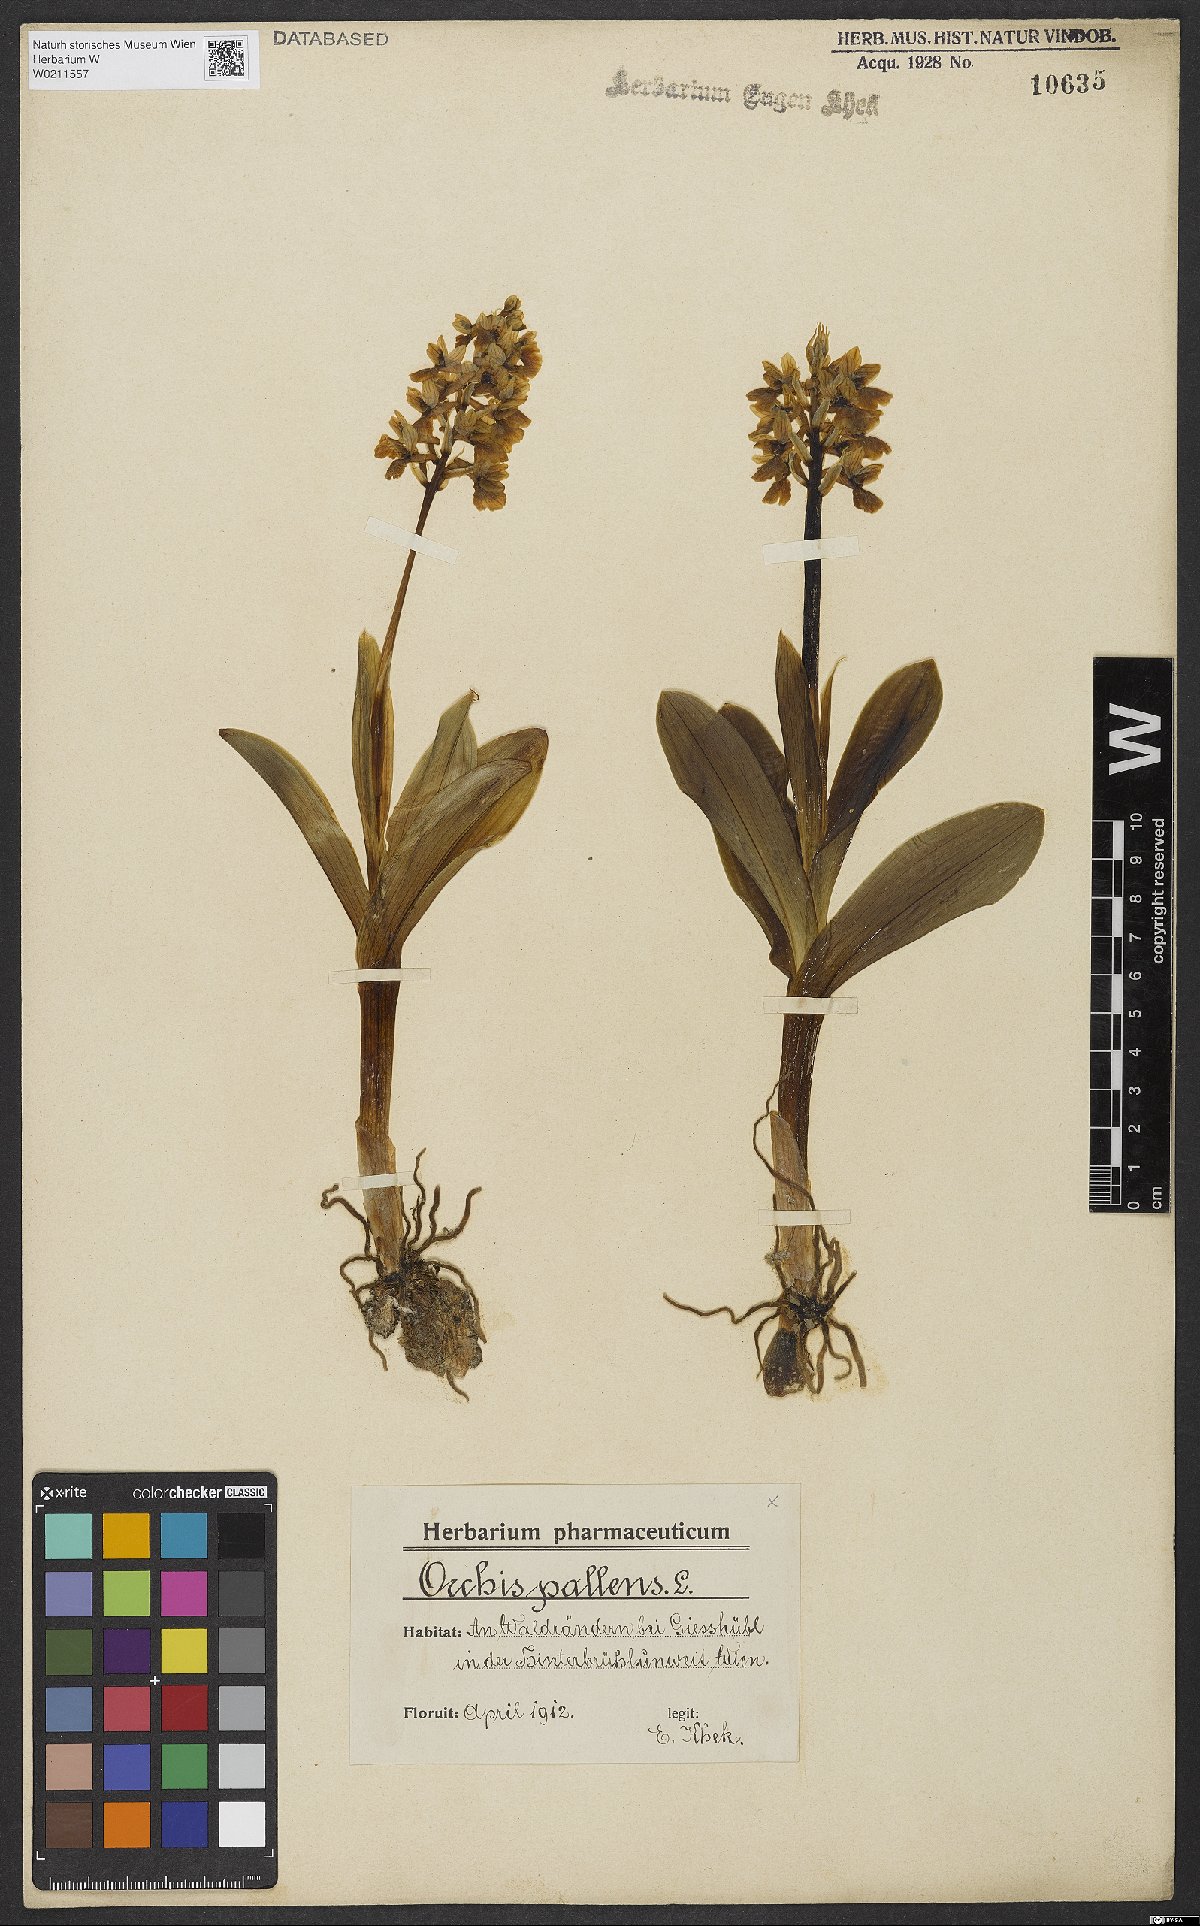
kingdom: Plantae
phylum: Tracheophyta
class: Liliopsida
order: Asparagales
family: Orchidaceae
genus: Orchis
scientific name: Orchis pallens
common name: Pale-flowered orchid
